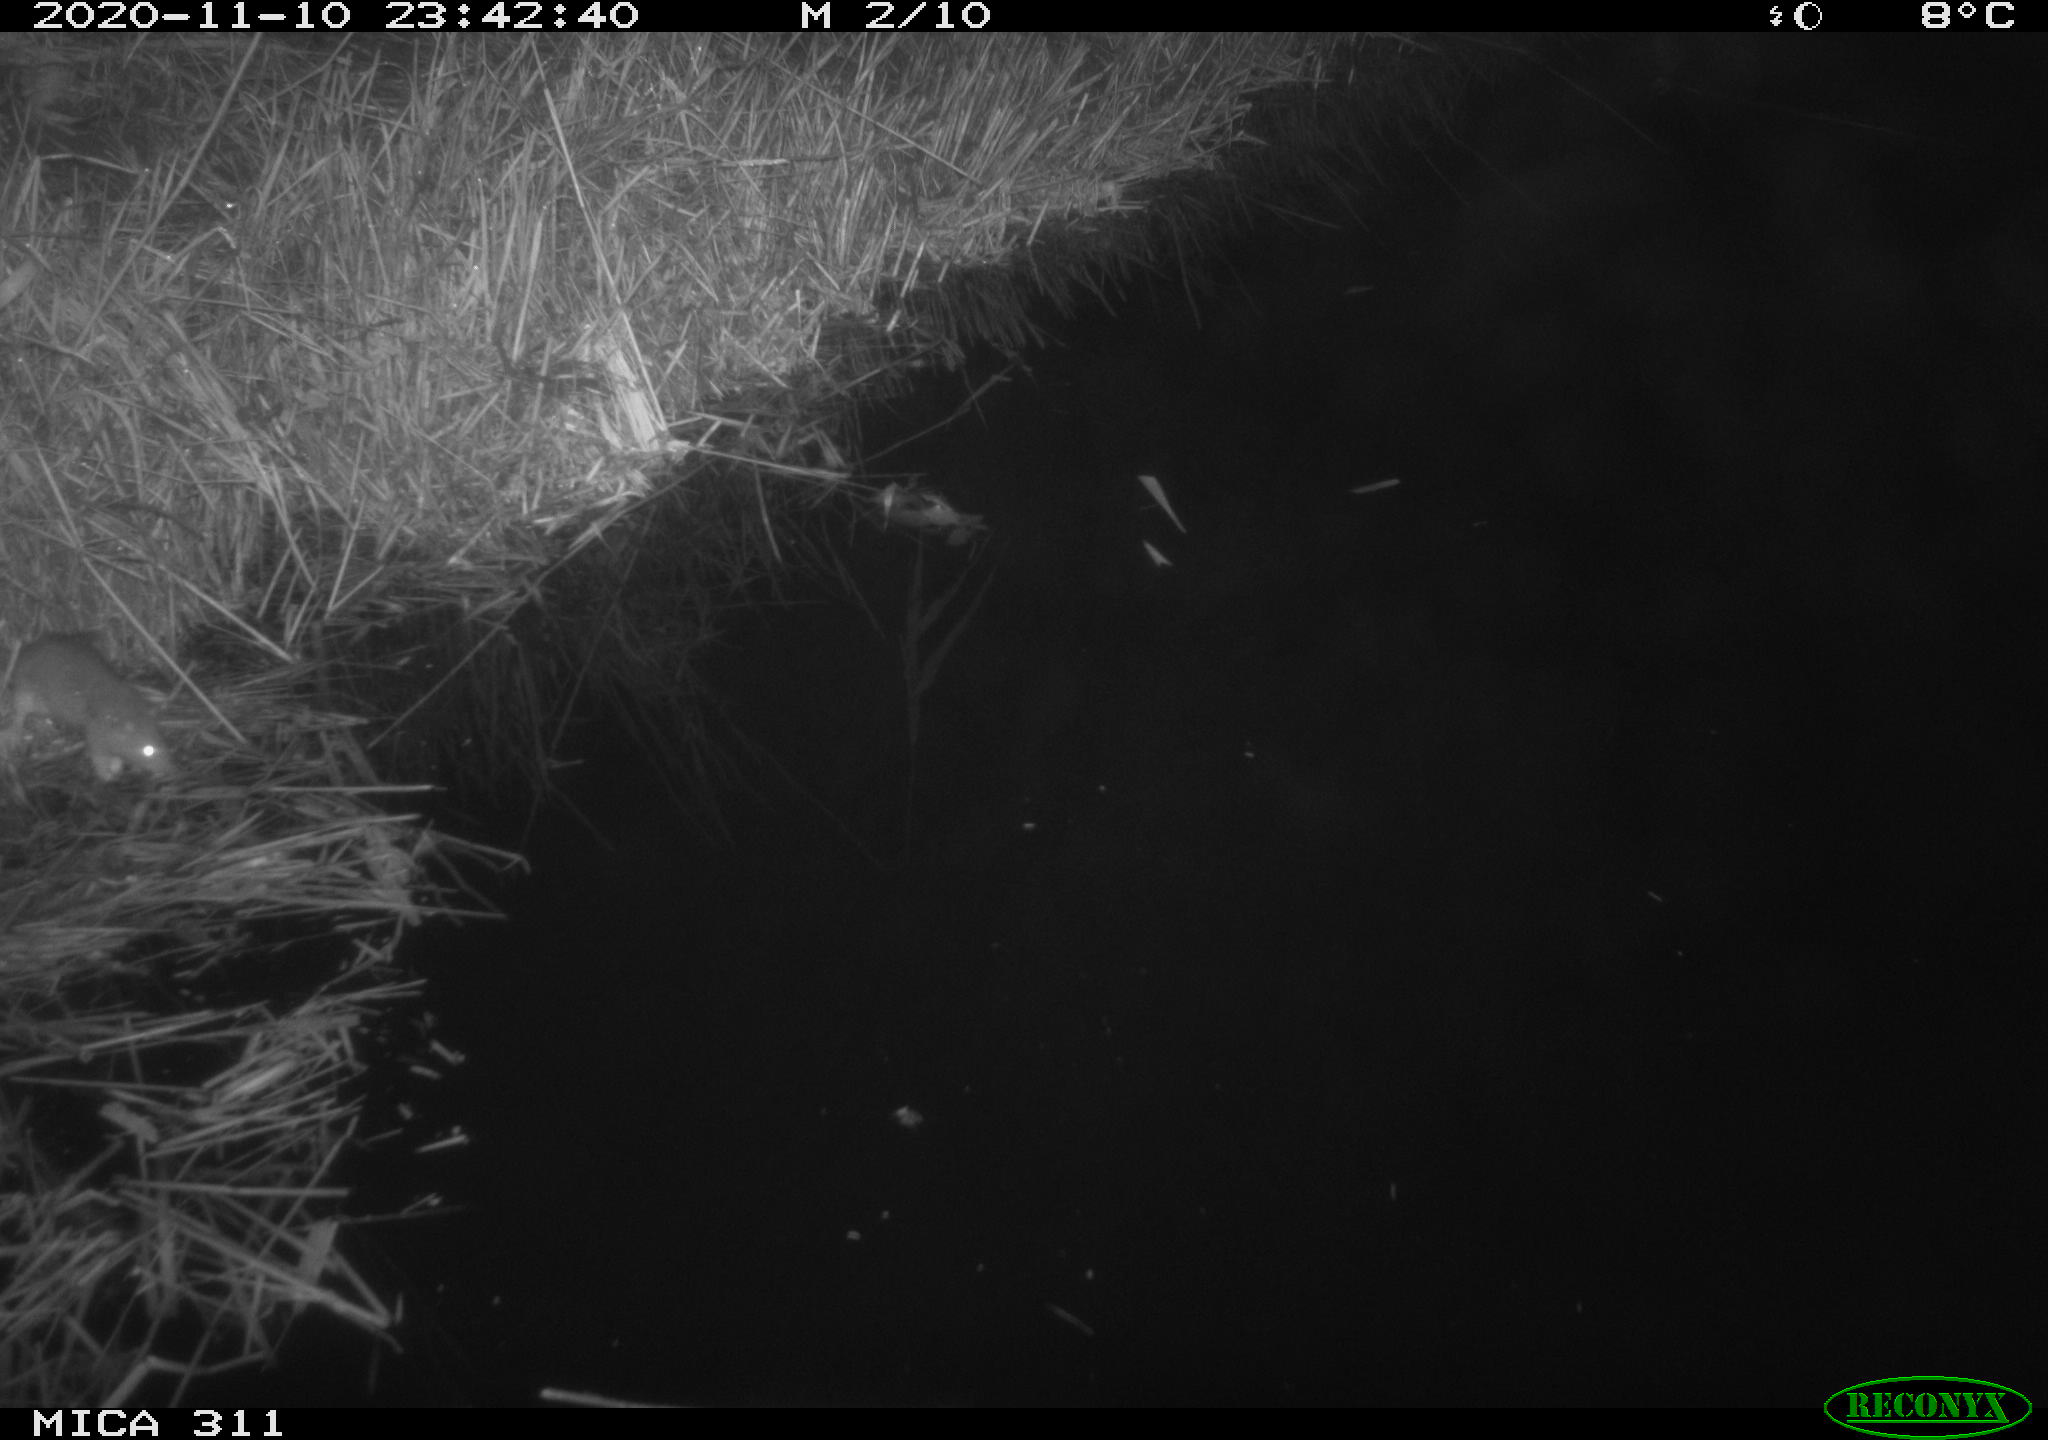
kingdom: Animalia
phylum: Chordata
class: Mammalia
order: Rodentia
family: Muridae
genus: Rattus
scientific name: Rattus norvegicus
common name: Brown rat
